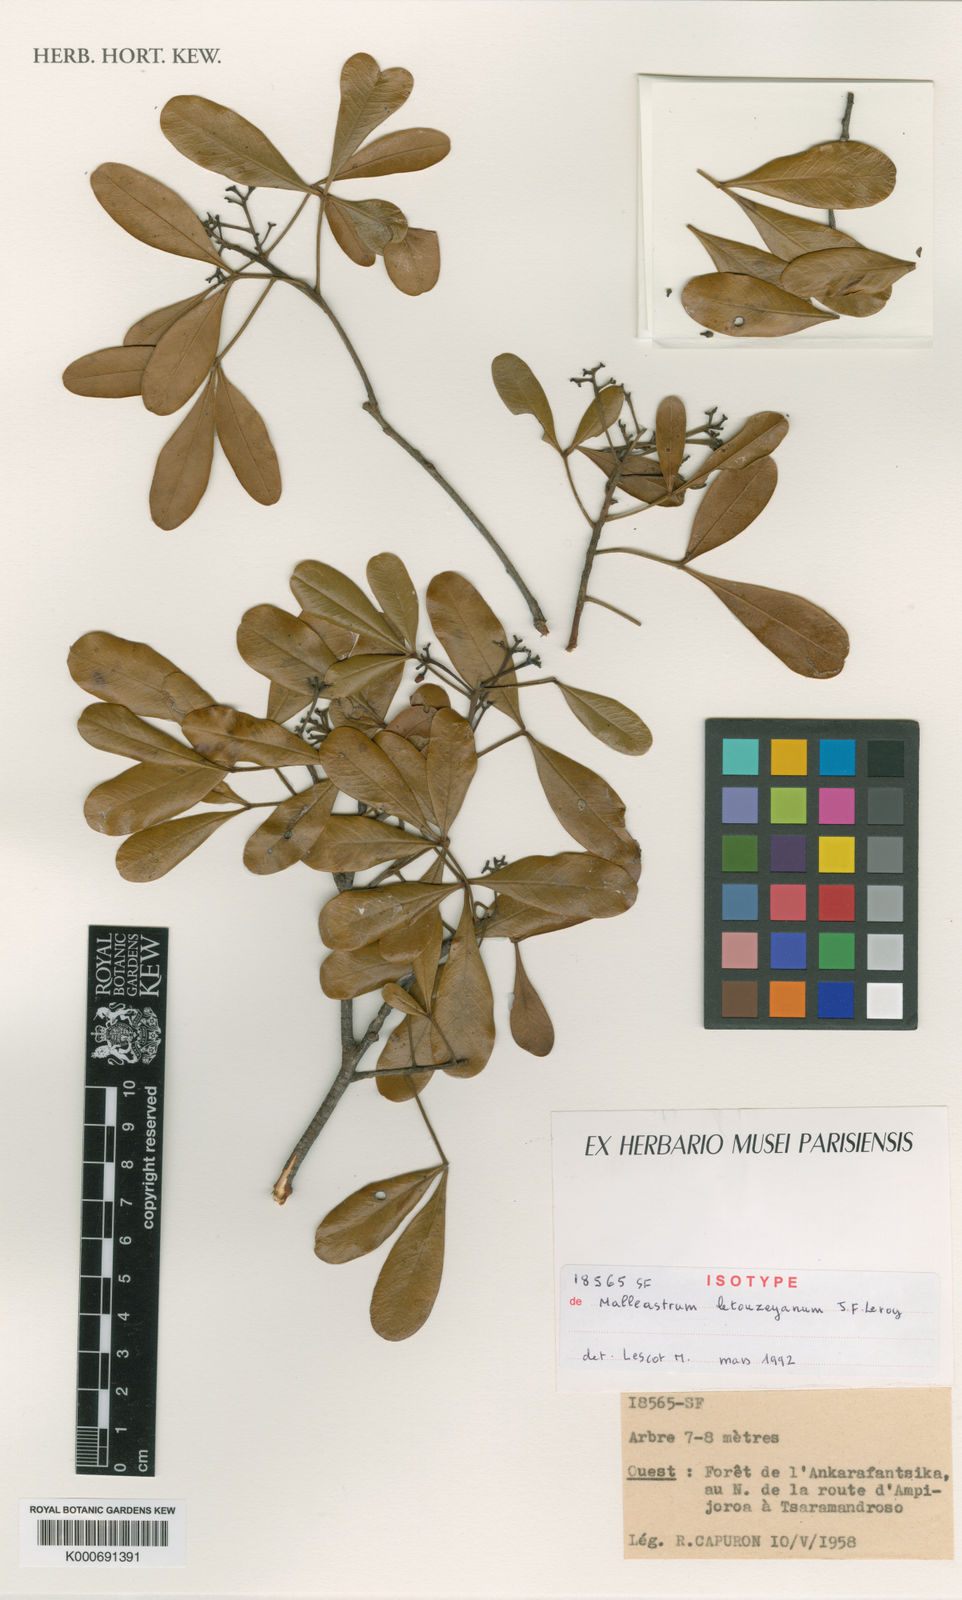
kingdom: Plantae
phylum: Tracheophyta
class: Magnoliopsida
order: Sapindales
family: Meliaceae
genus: Malleastrum
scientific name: Malleastrum letouzeyanum
